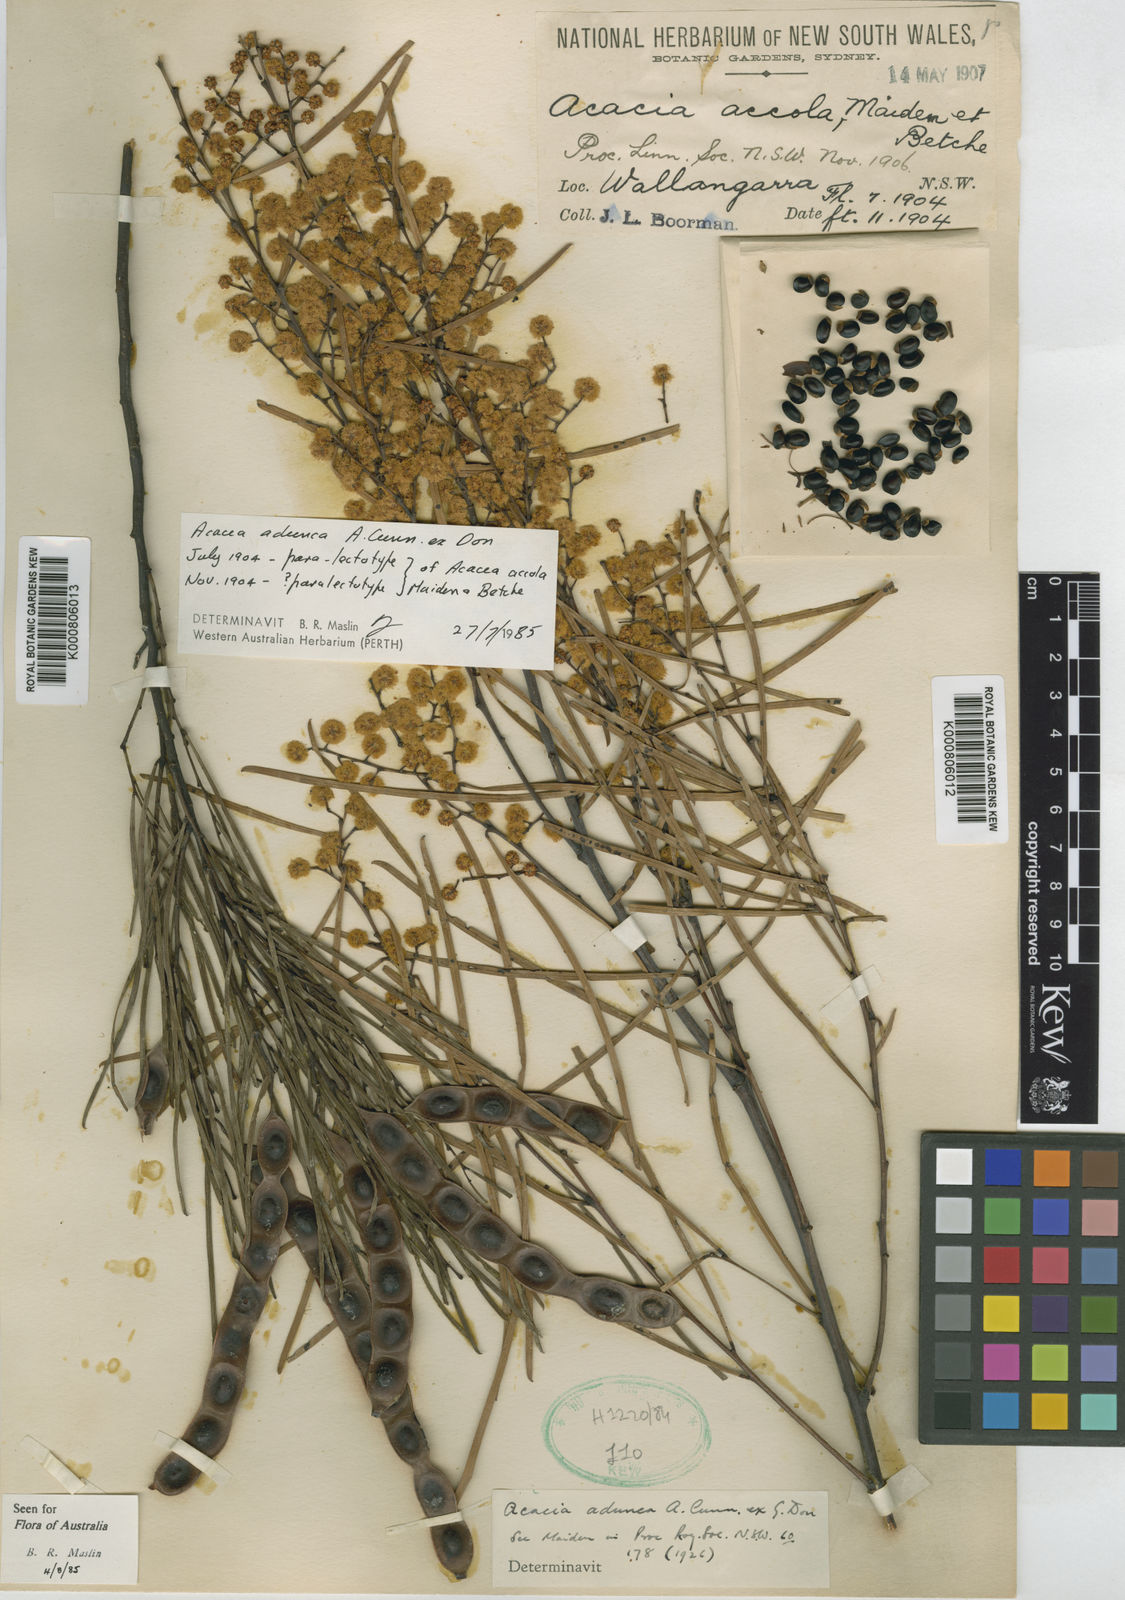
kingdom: Plantae
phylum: Tracheophyta
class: Magnoliopsida
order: Fabales
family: Fabaceae
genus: Acacia
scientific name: Acacia adunca
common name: Wallangarra wattle
